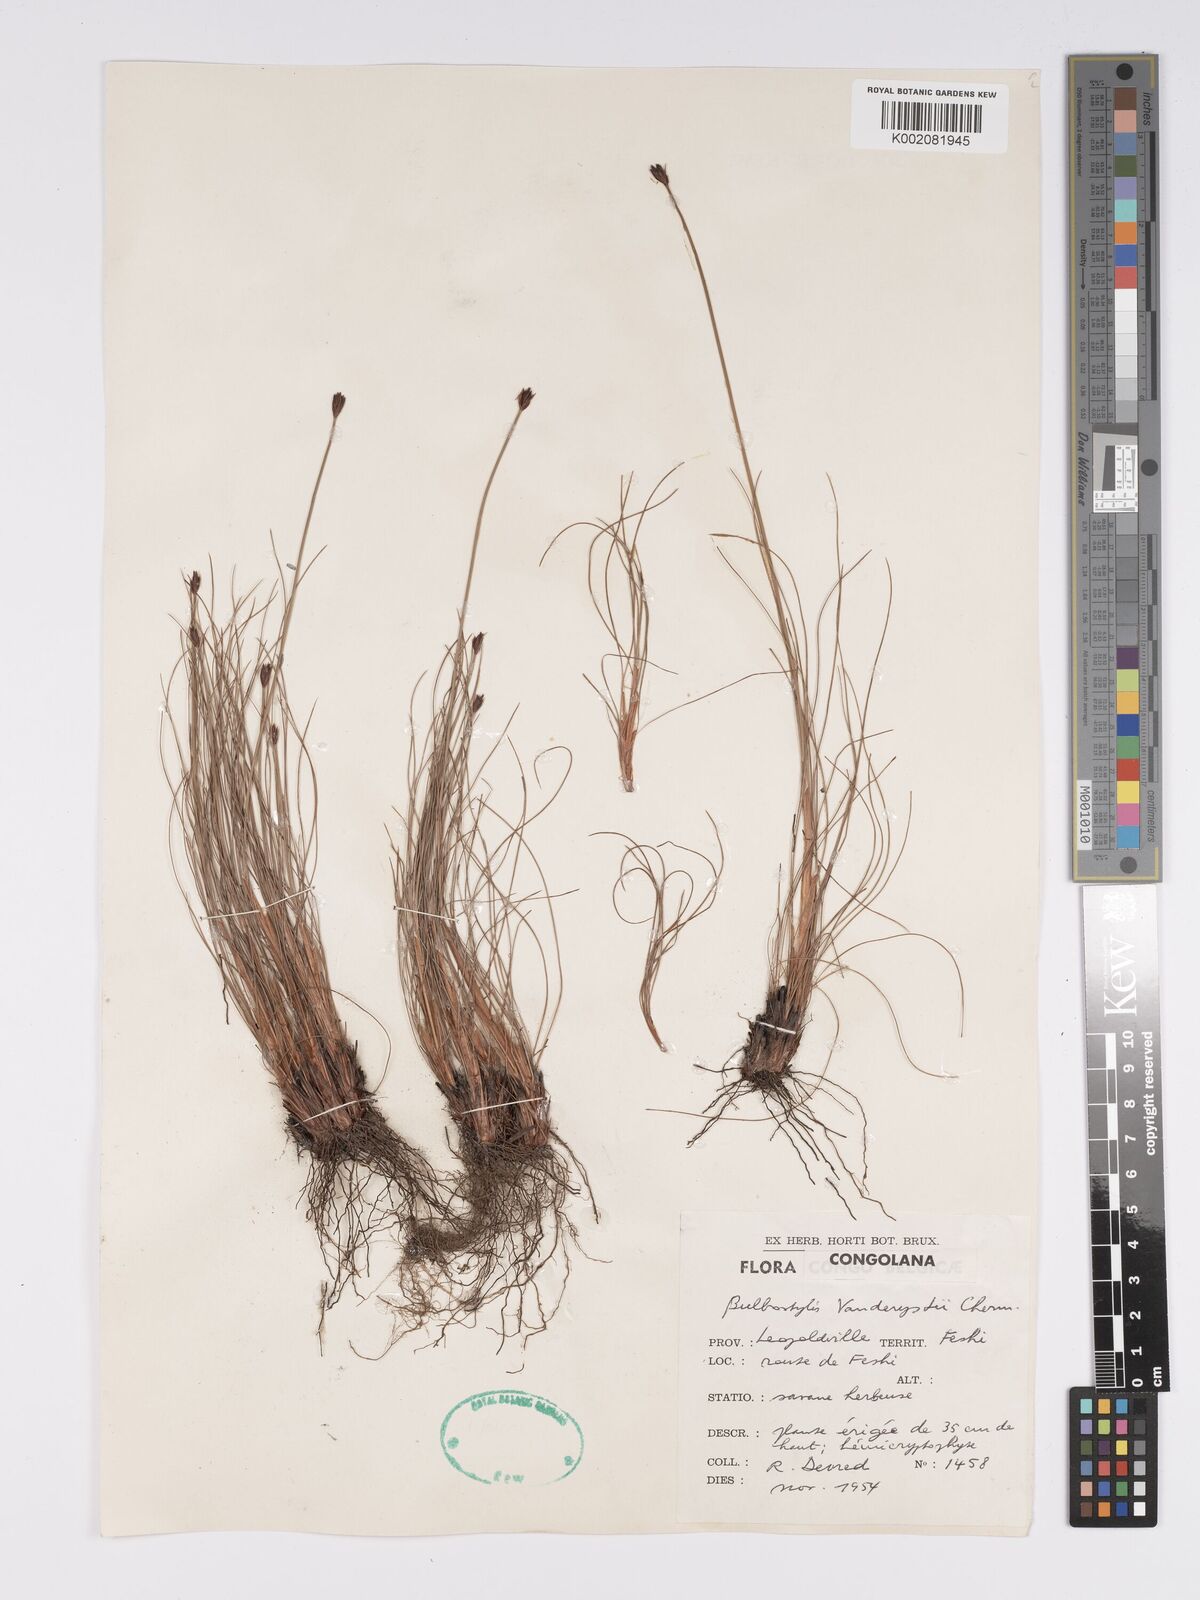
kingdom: Plantae
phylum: Tracheophyta
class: Liliopsida
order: Poales
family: Cyperaceae
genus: Bulbostylis
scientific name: Bulbostylis vanderystii
